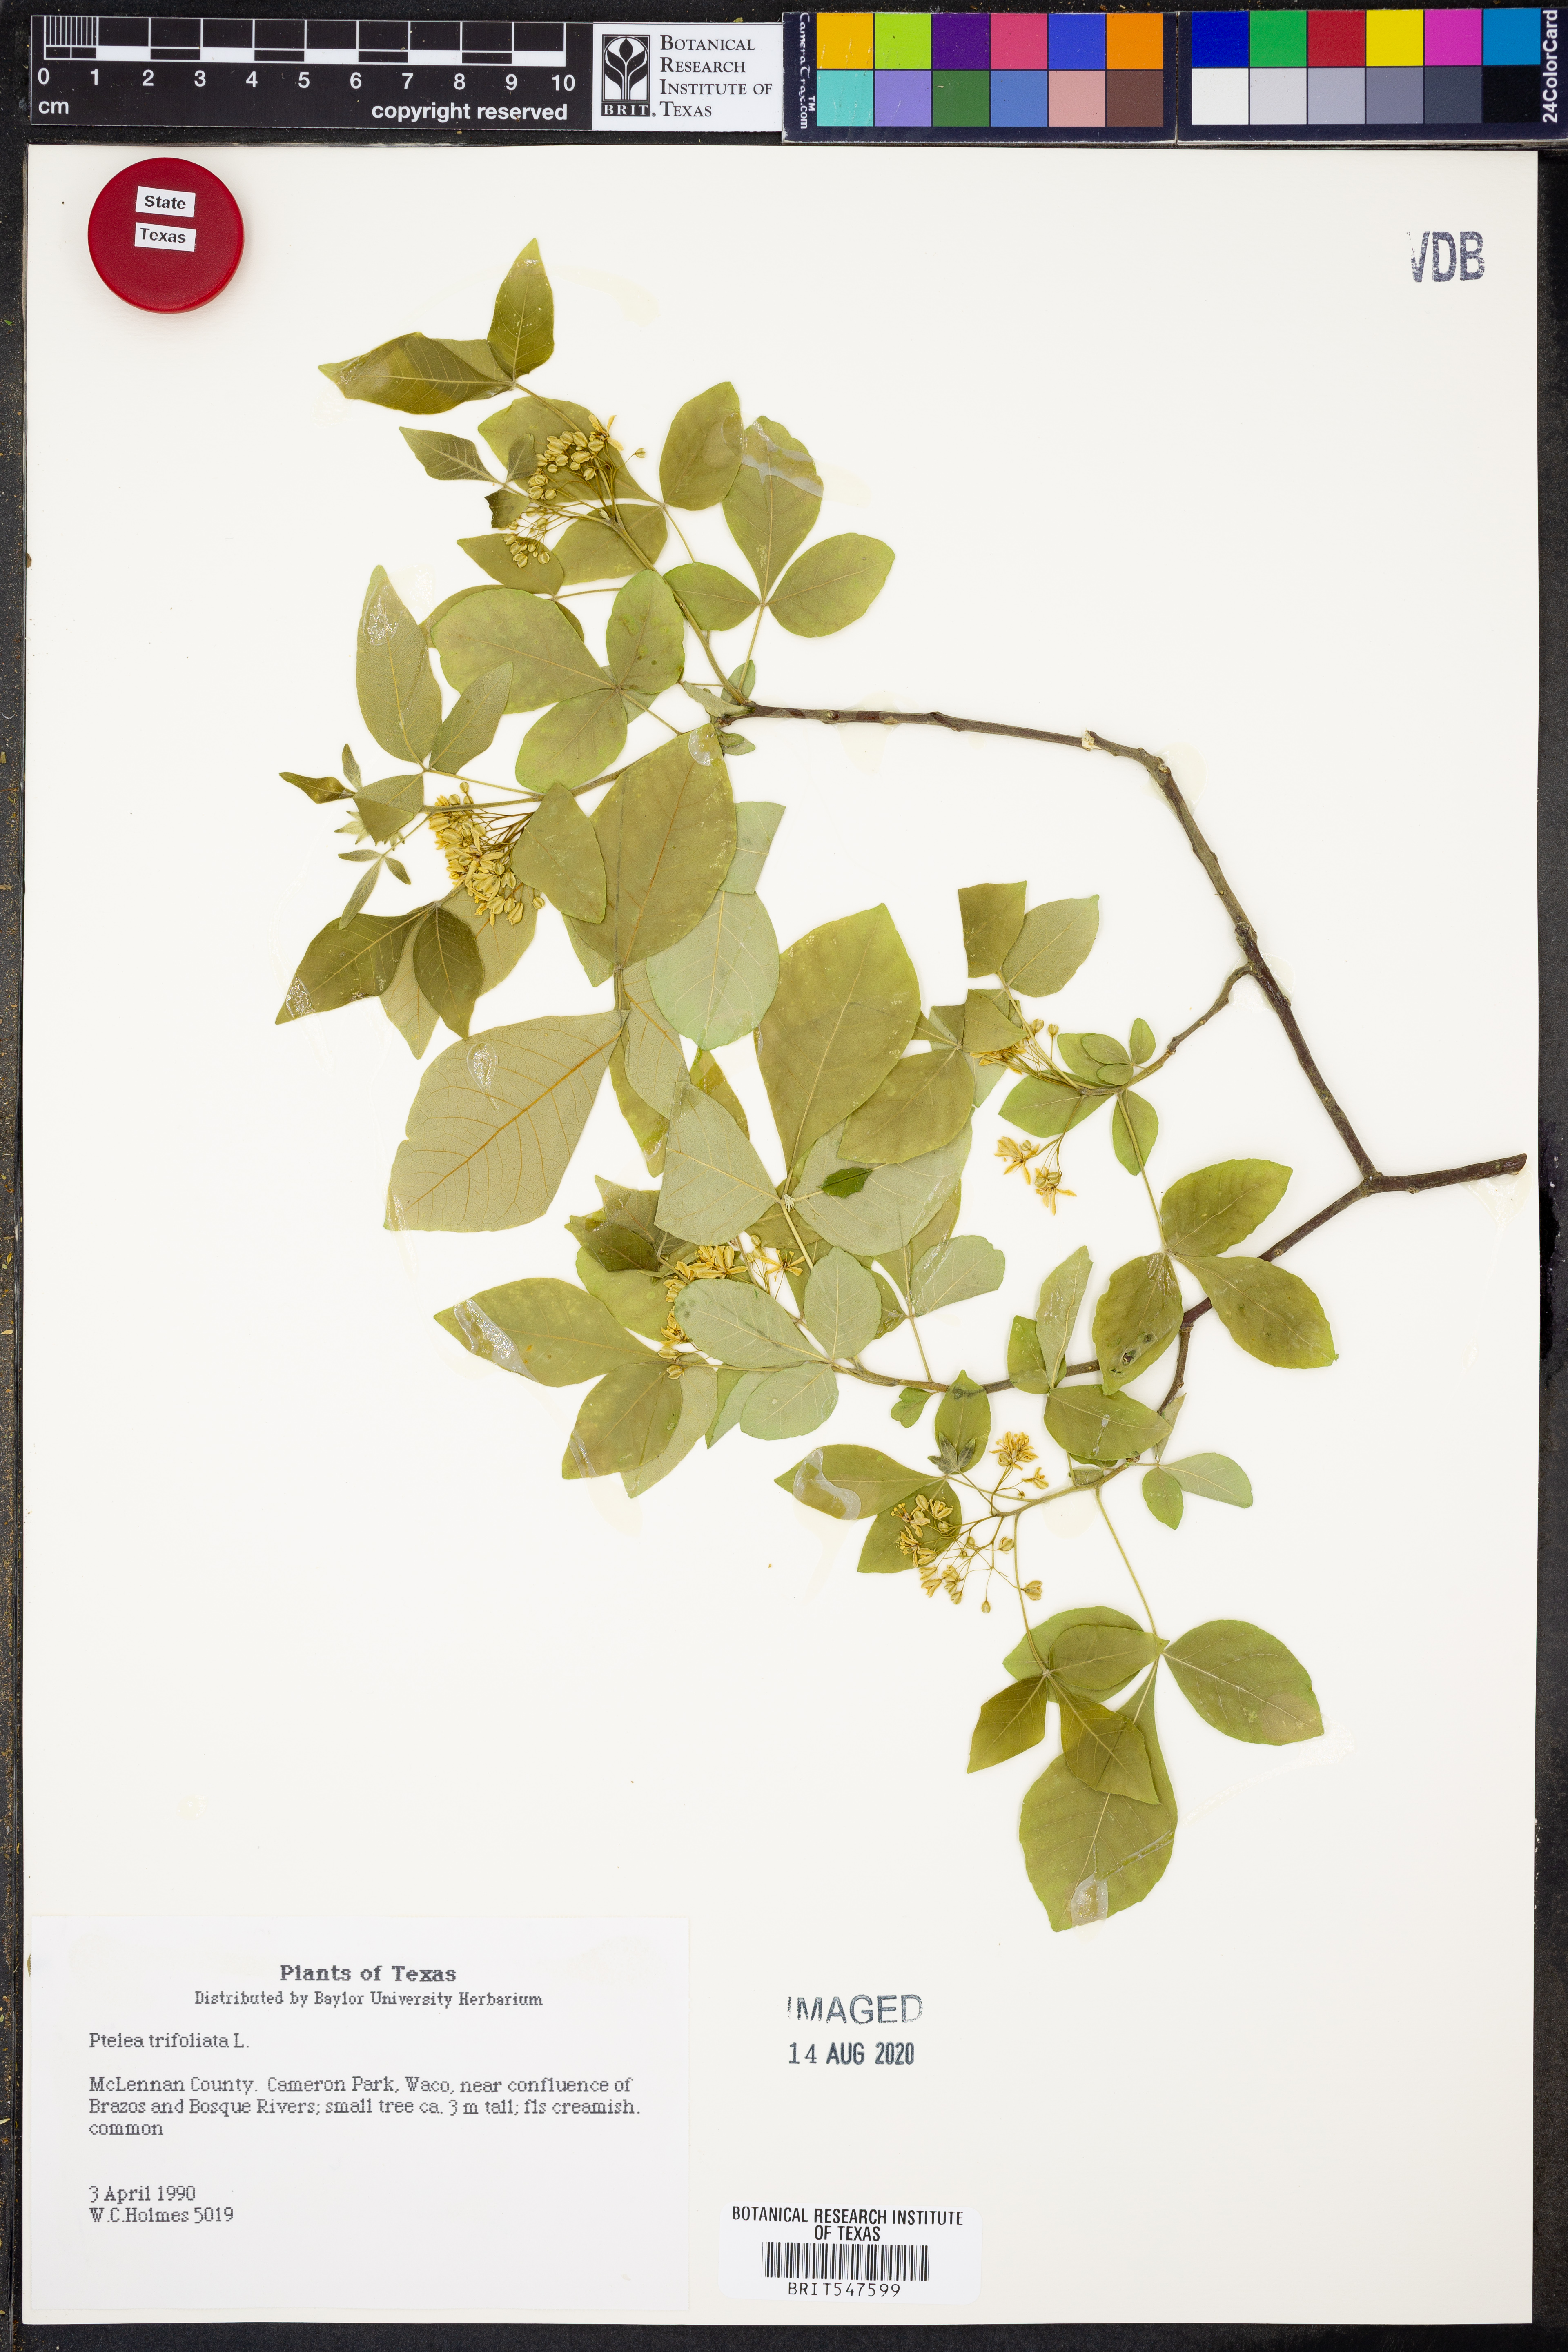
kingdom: Plantae
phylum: Tracheophyta
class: Magnoliopsida
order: Sapindales
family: Rutaceae
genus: Ptelea
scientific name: Ptelea trifoliata
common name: Common hop-tree
